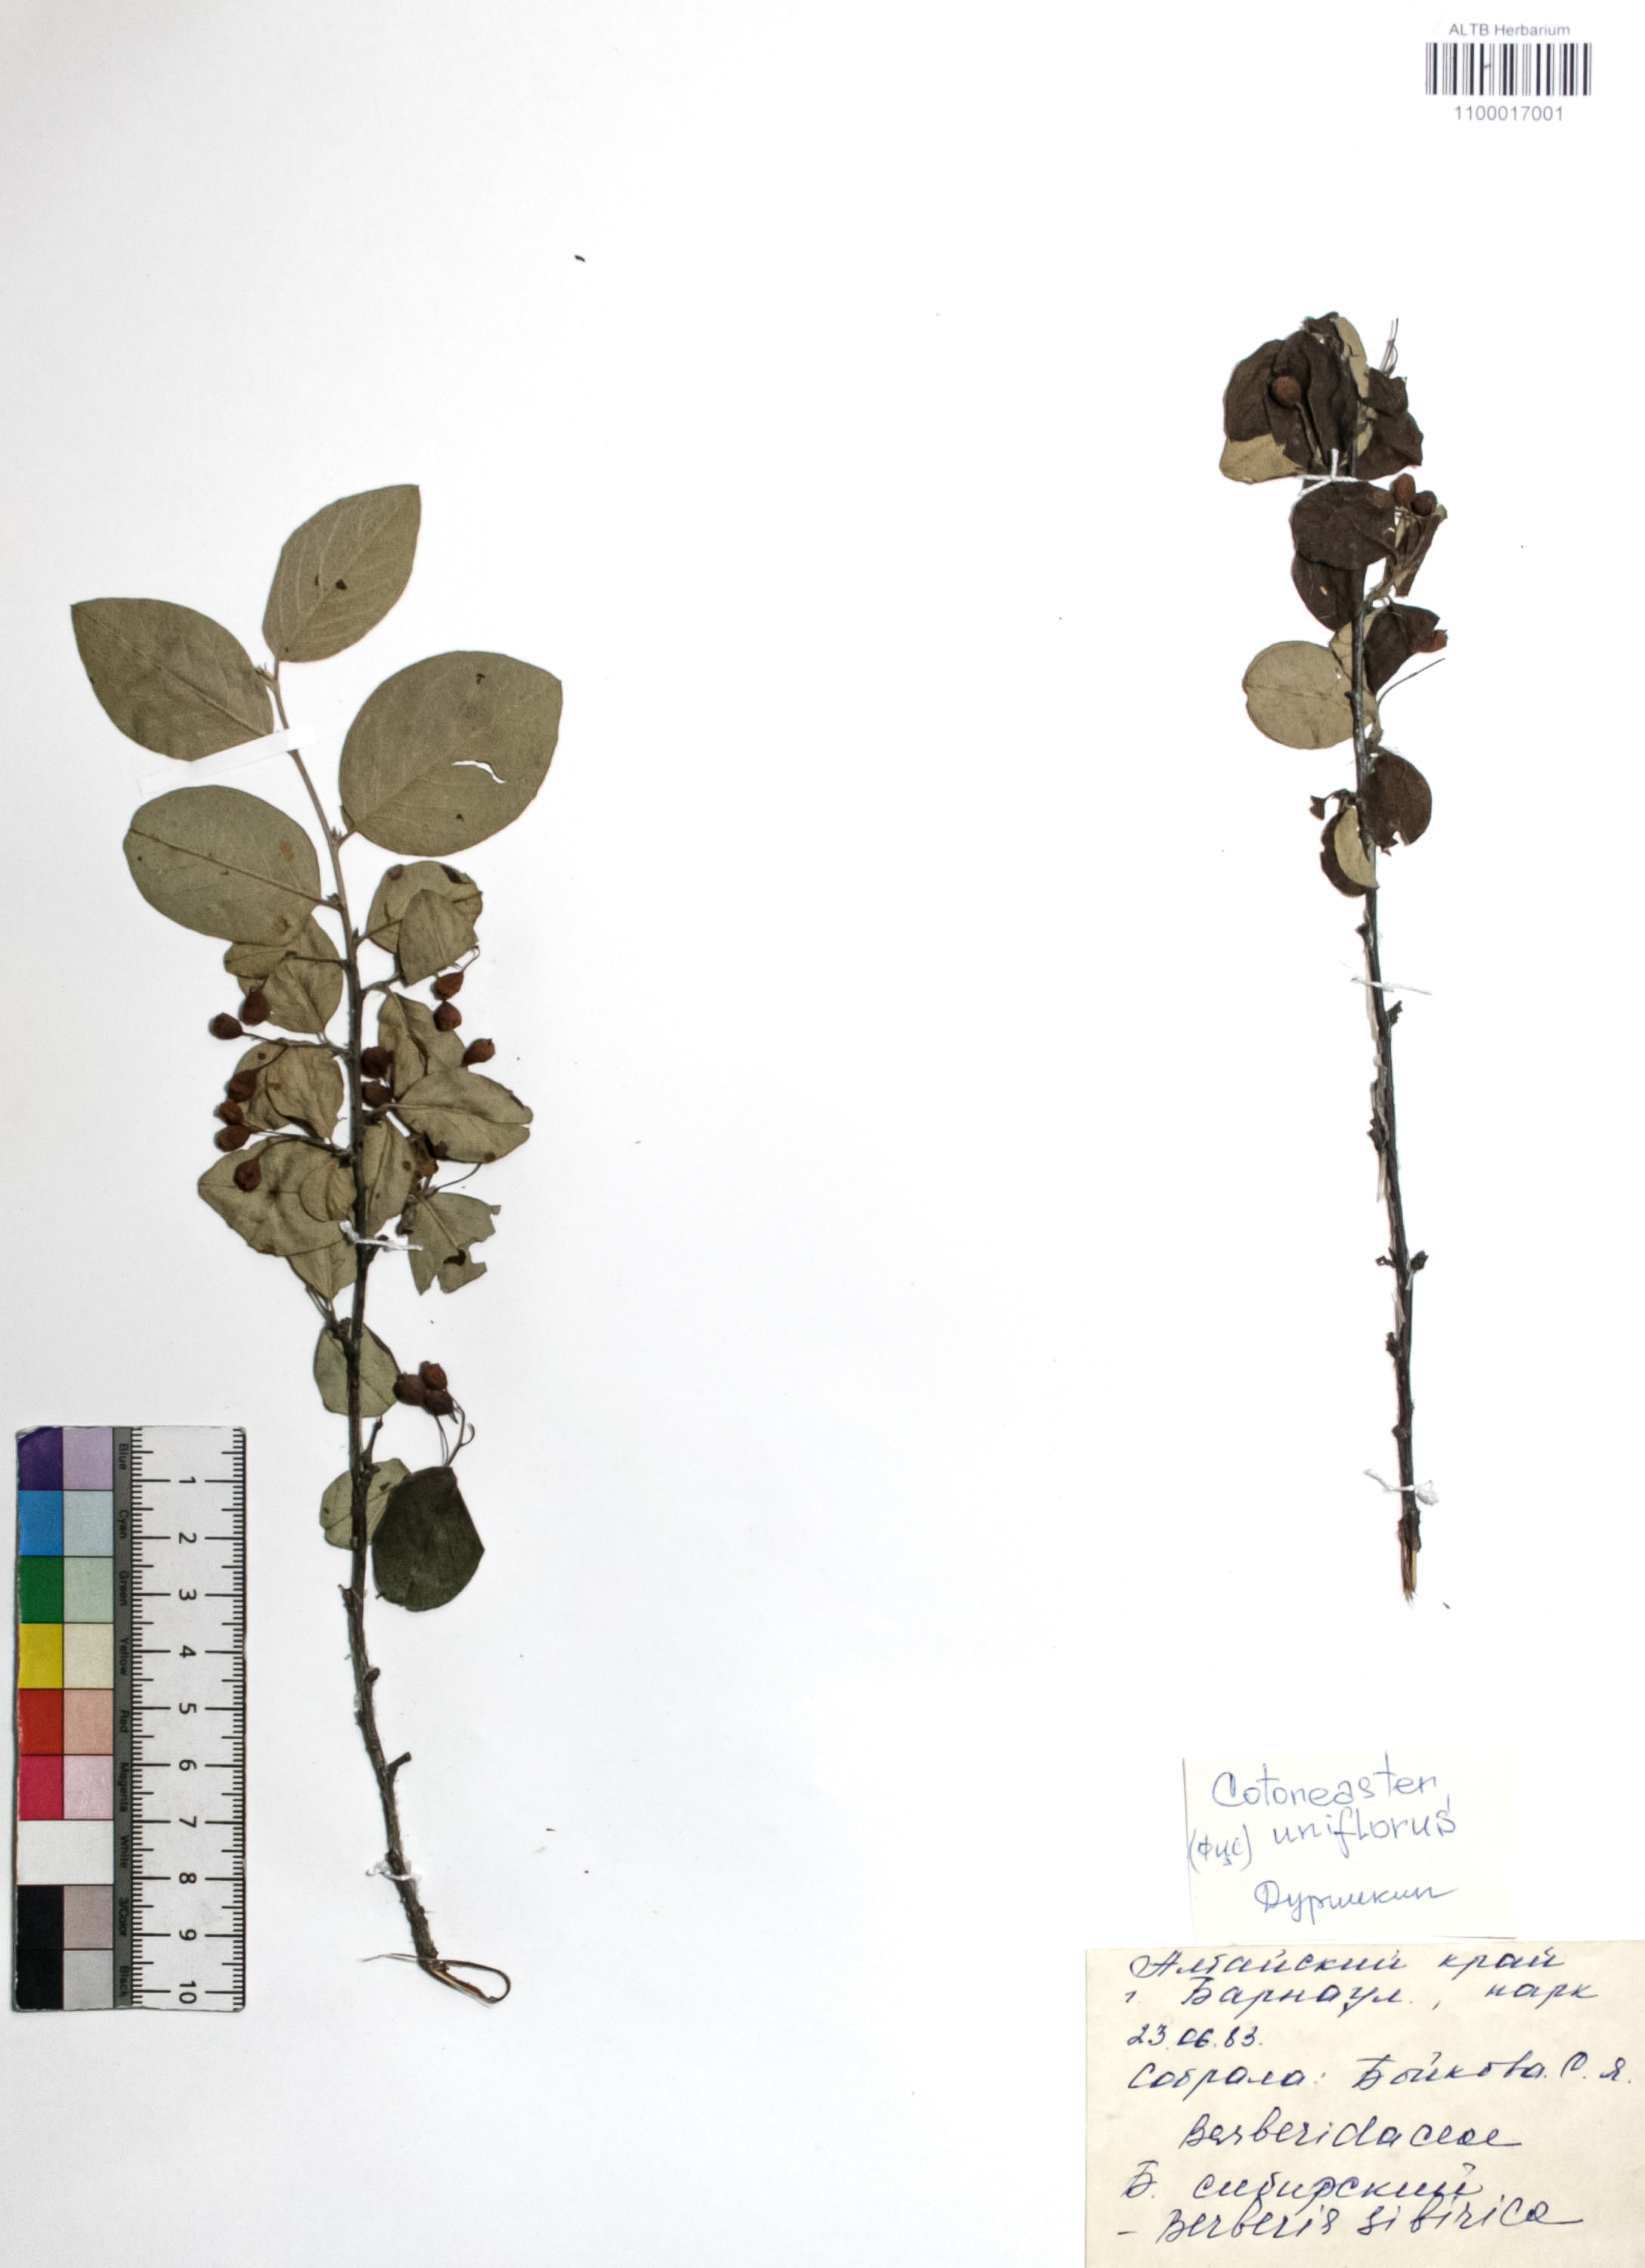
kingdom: Plantae
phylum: Tracheophyta
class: Magnoliopsida
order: Rosales
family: Rosaceae
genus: Cotoneaster
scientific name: Cotoneaster uniflorus
